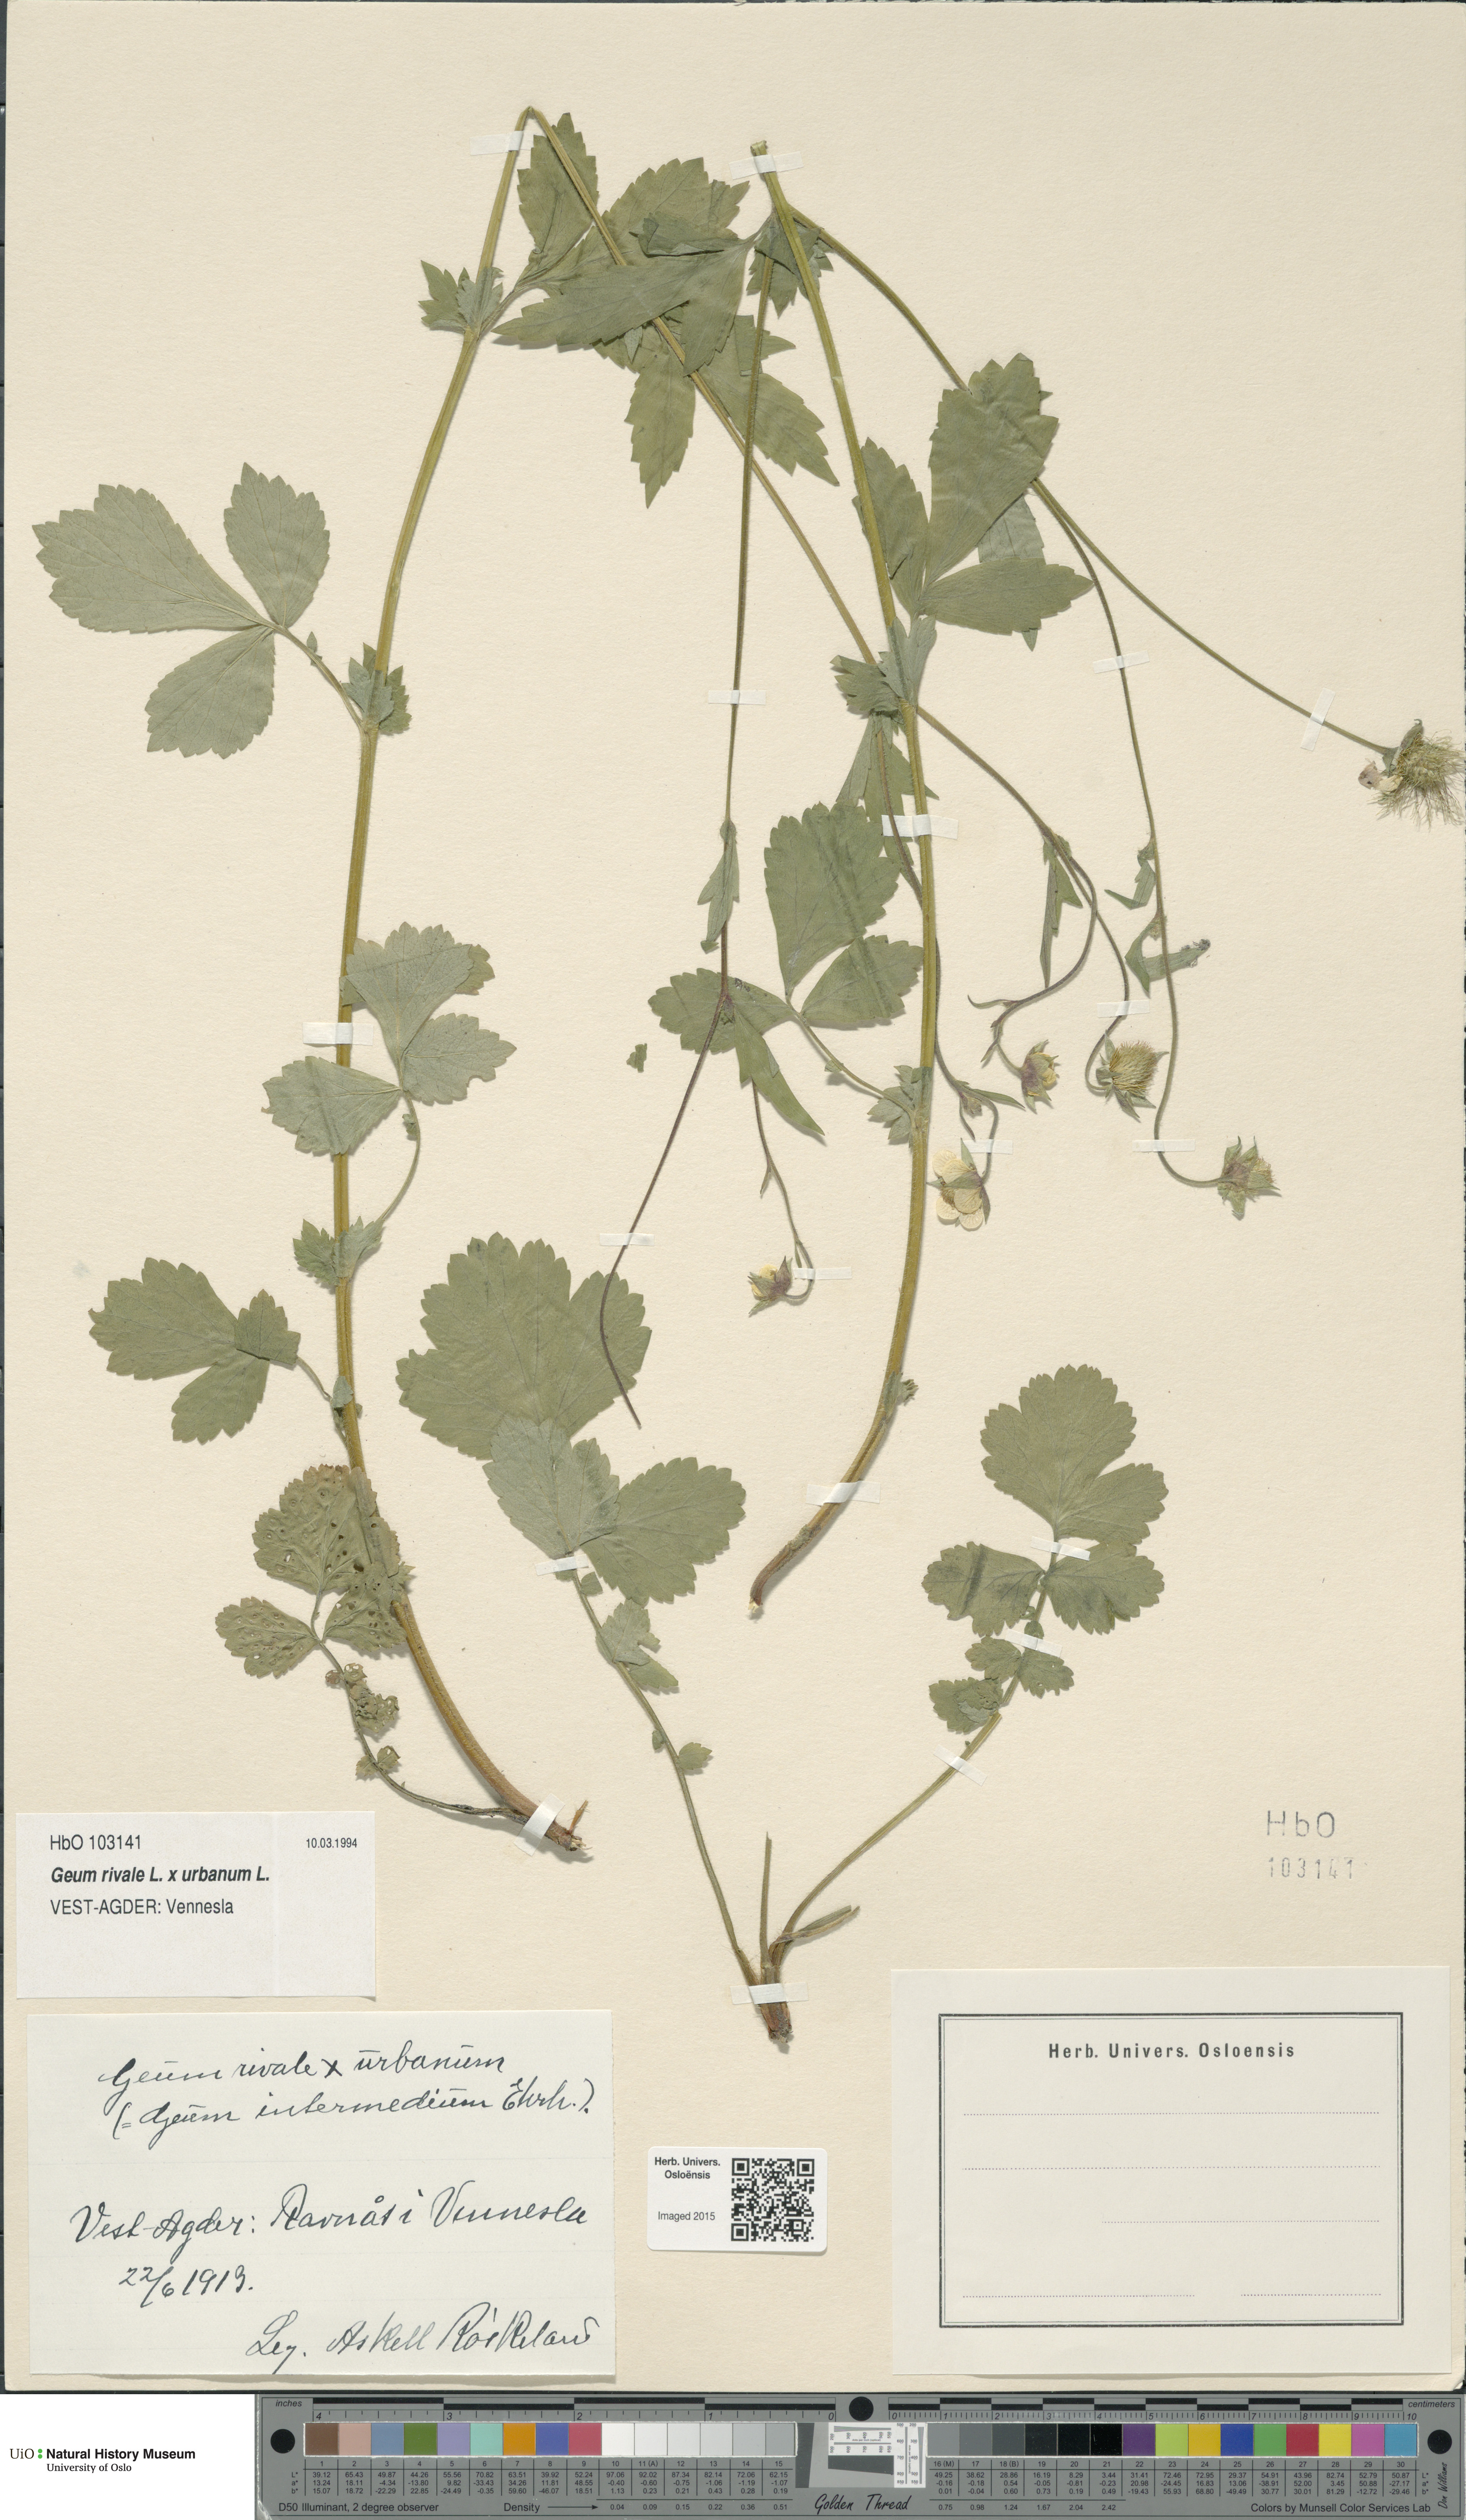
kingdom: Plantae
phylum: Tracheophyta
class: Magnoliopsida
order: Rosales
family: Rosaceae
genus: Geum
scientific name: Geum
